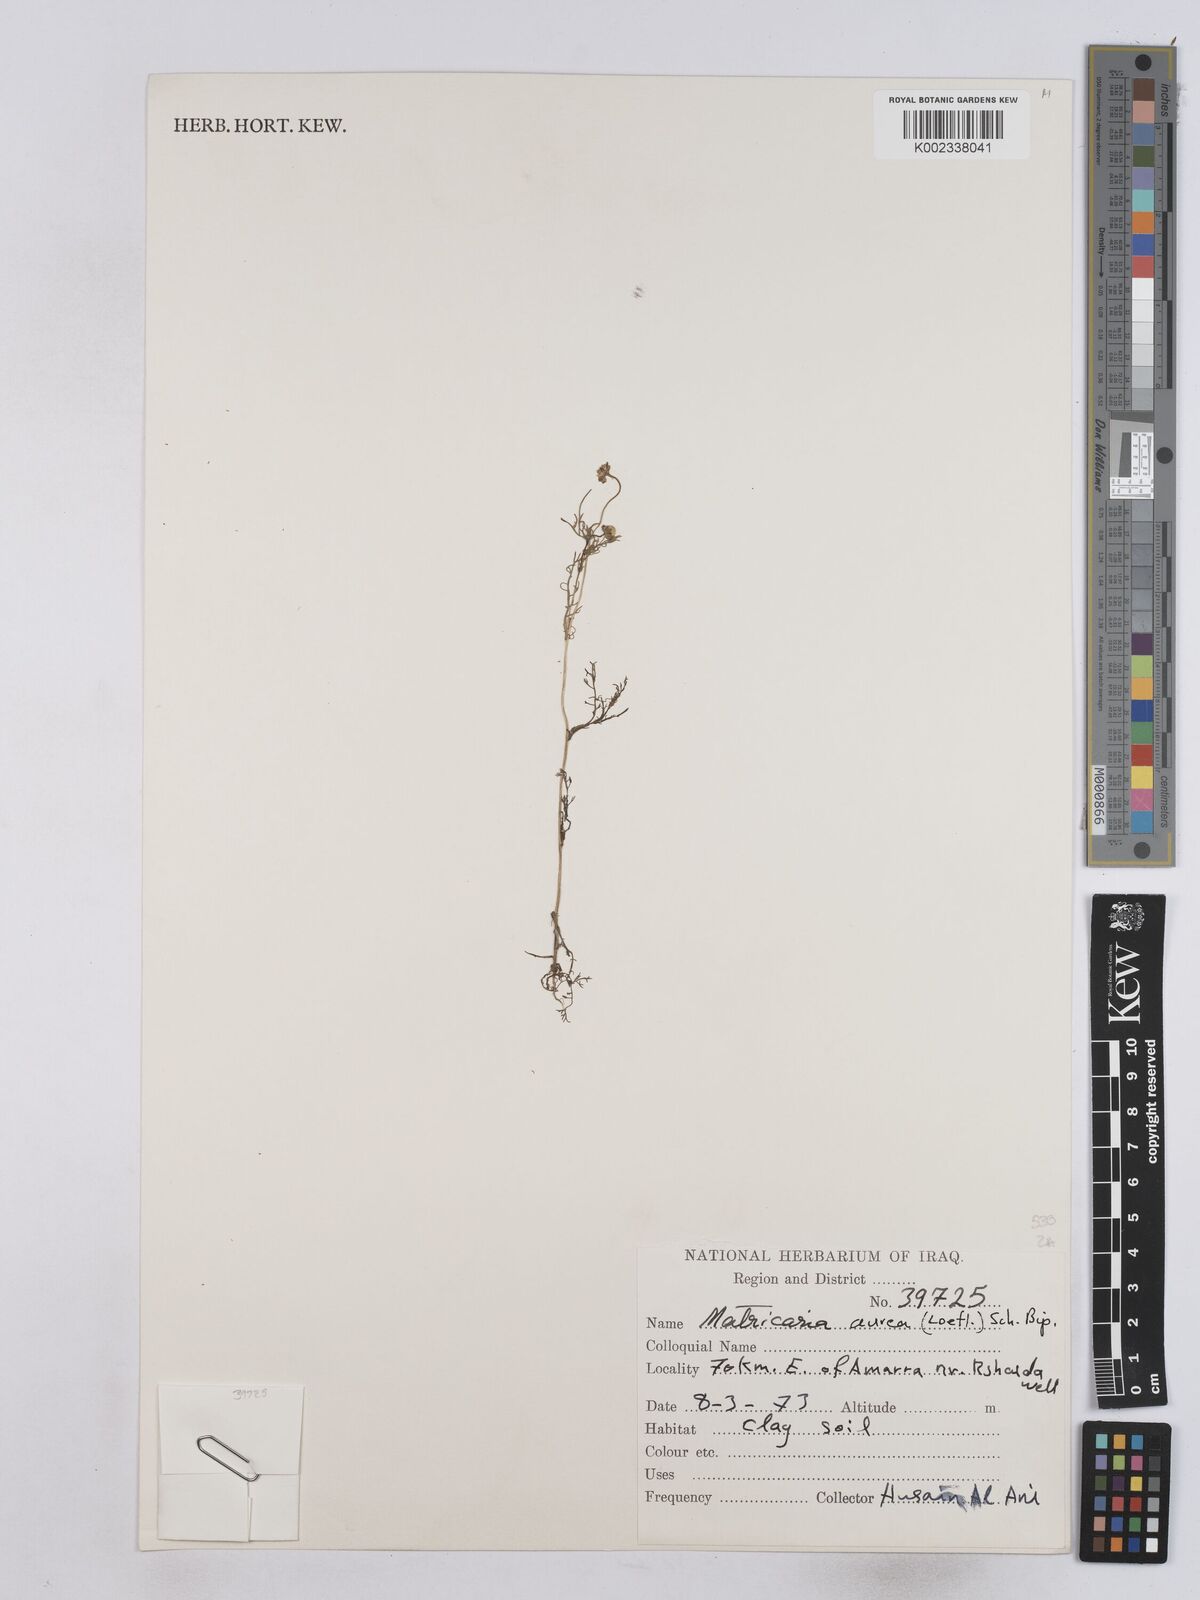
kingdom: Plantae
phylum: Tracheophyta
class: Magnoliopsida
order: Asterales
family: Asteraceae
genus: Matricaria
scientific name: Matricaria aurea
